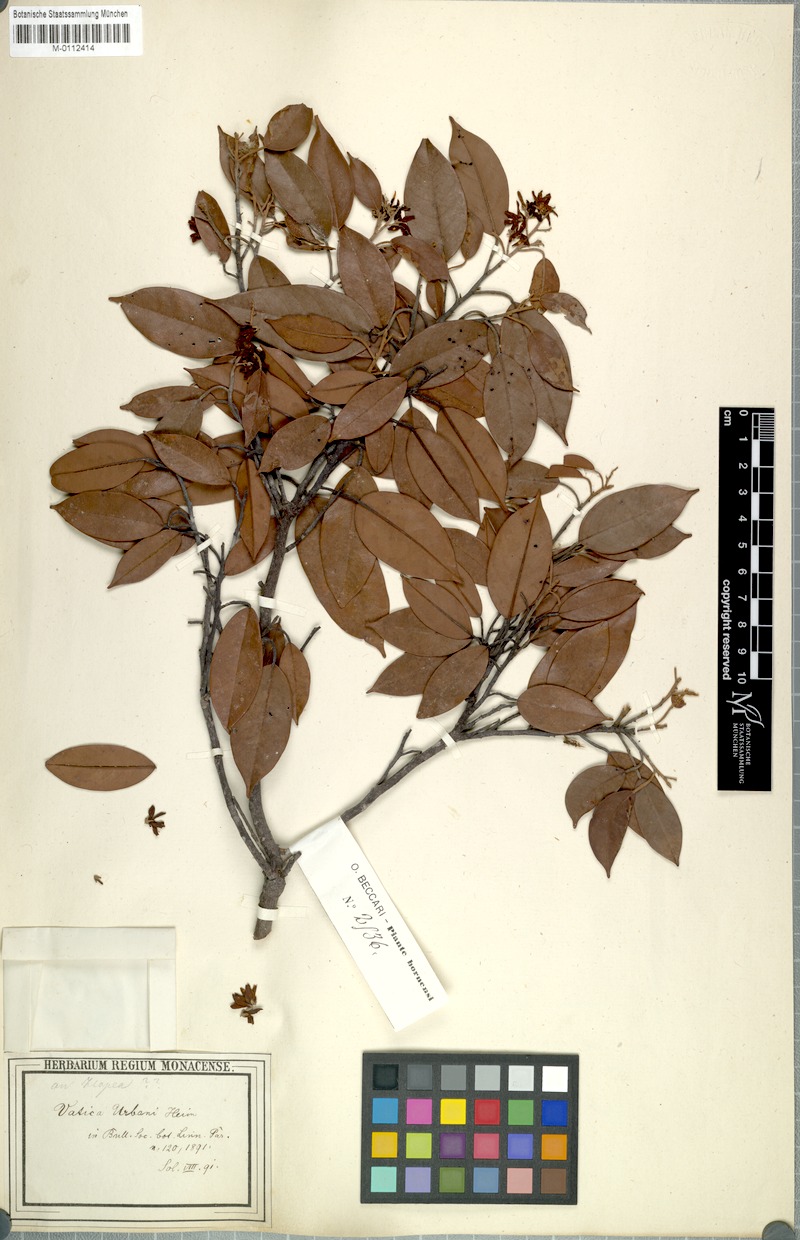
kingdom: Plantae
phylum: Tracheophyta
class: Magnoliopsida
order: Malvales
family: Dipterocarpaceae
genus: Vatica
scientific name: Vatica
